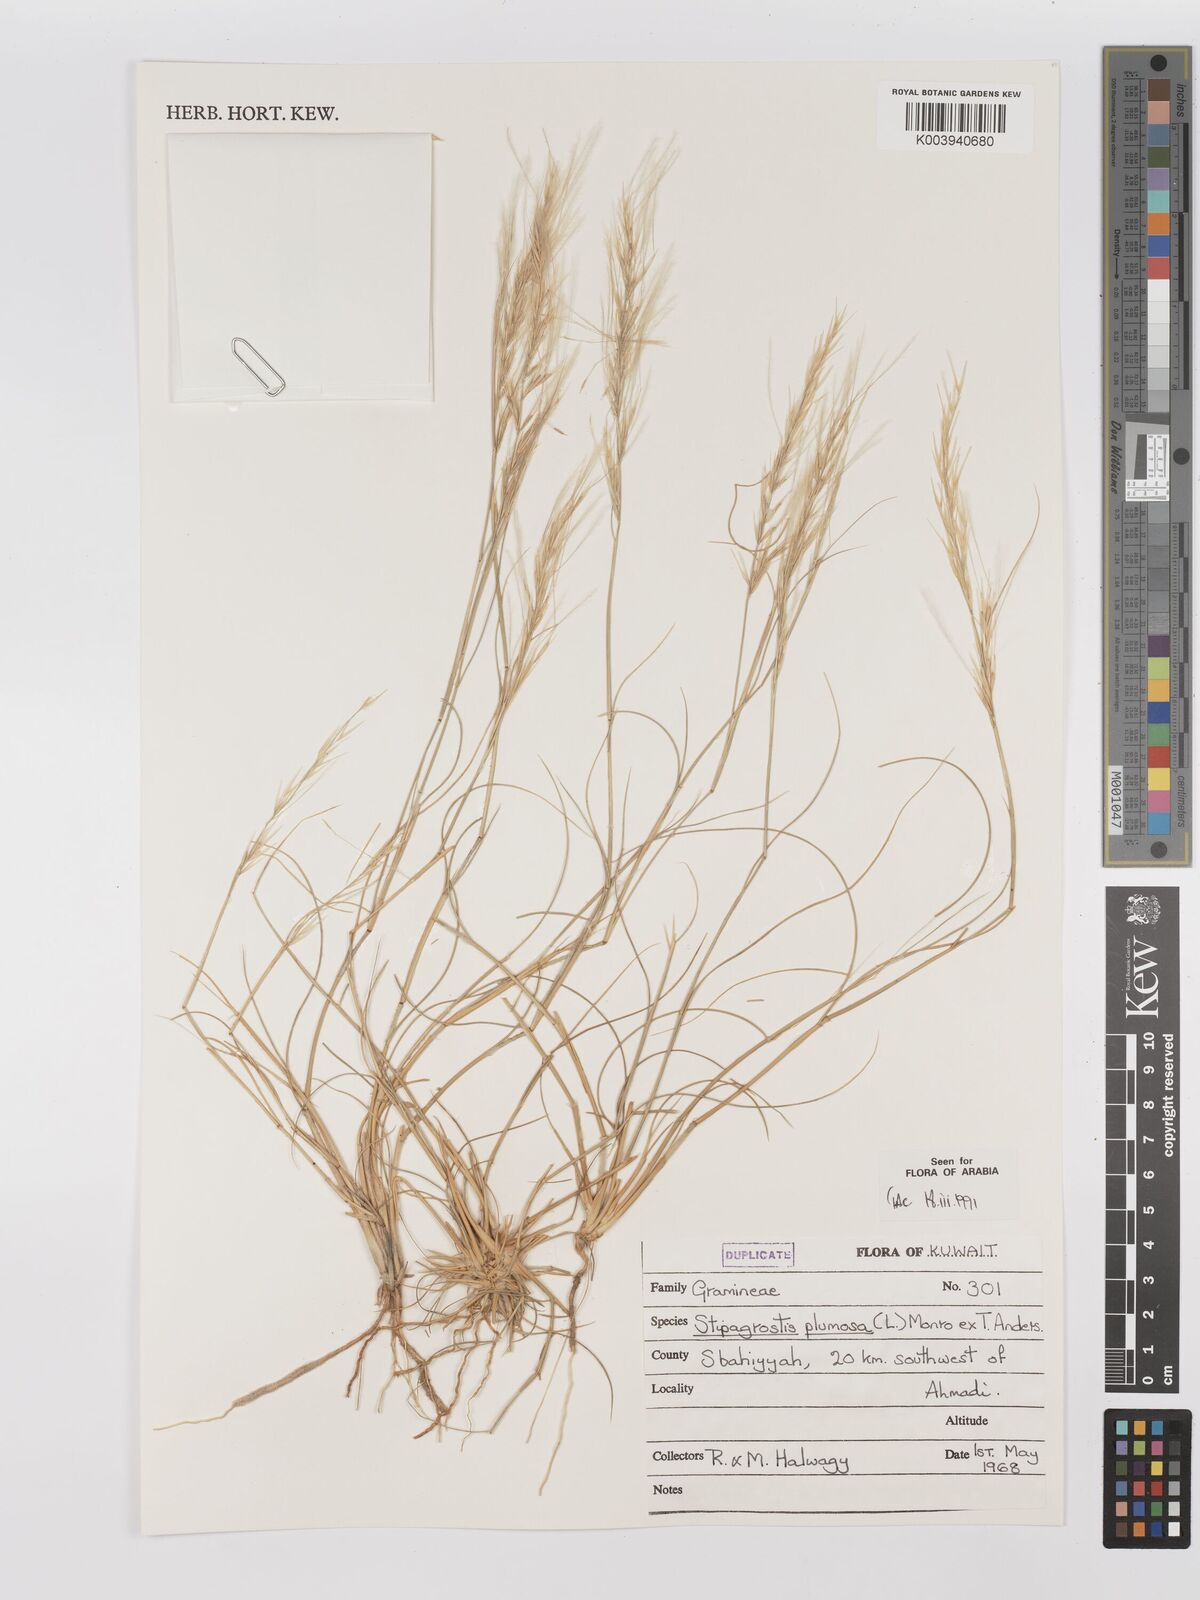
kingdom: Plantae
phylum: Tracheophyta
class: Liliopsida
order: Poales
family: Poaceae
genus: Stipagrostis
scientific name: Stipagrostis plumosa
